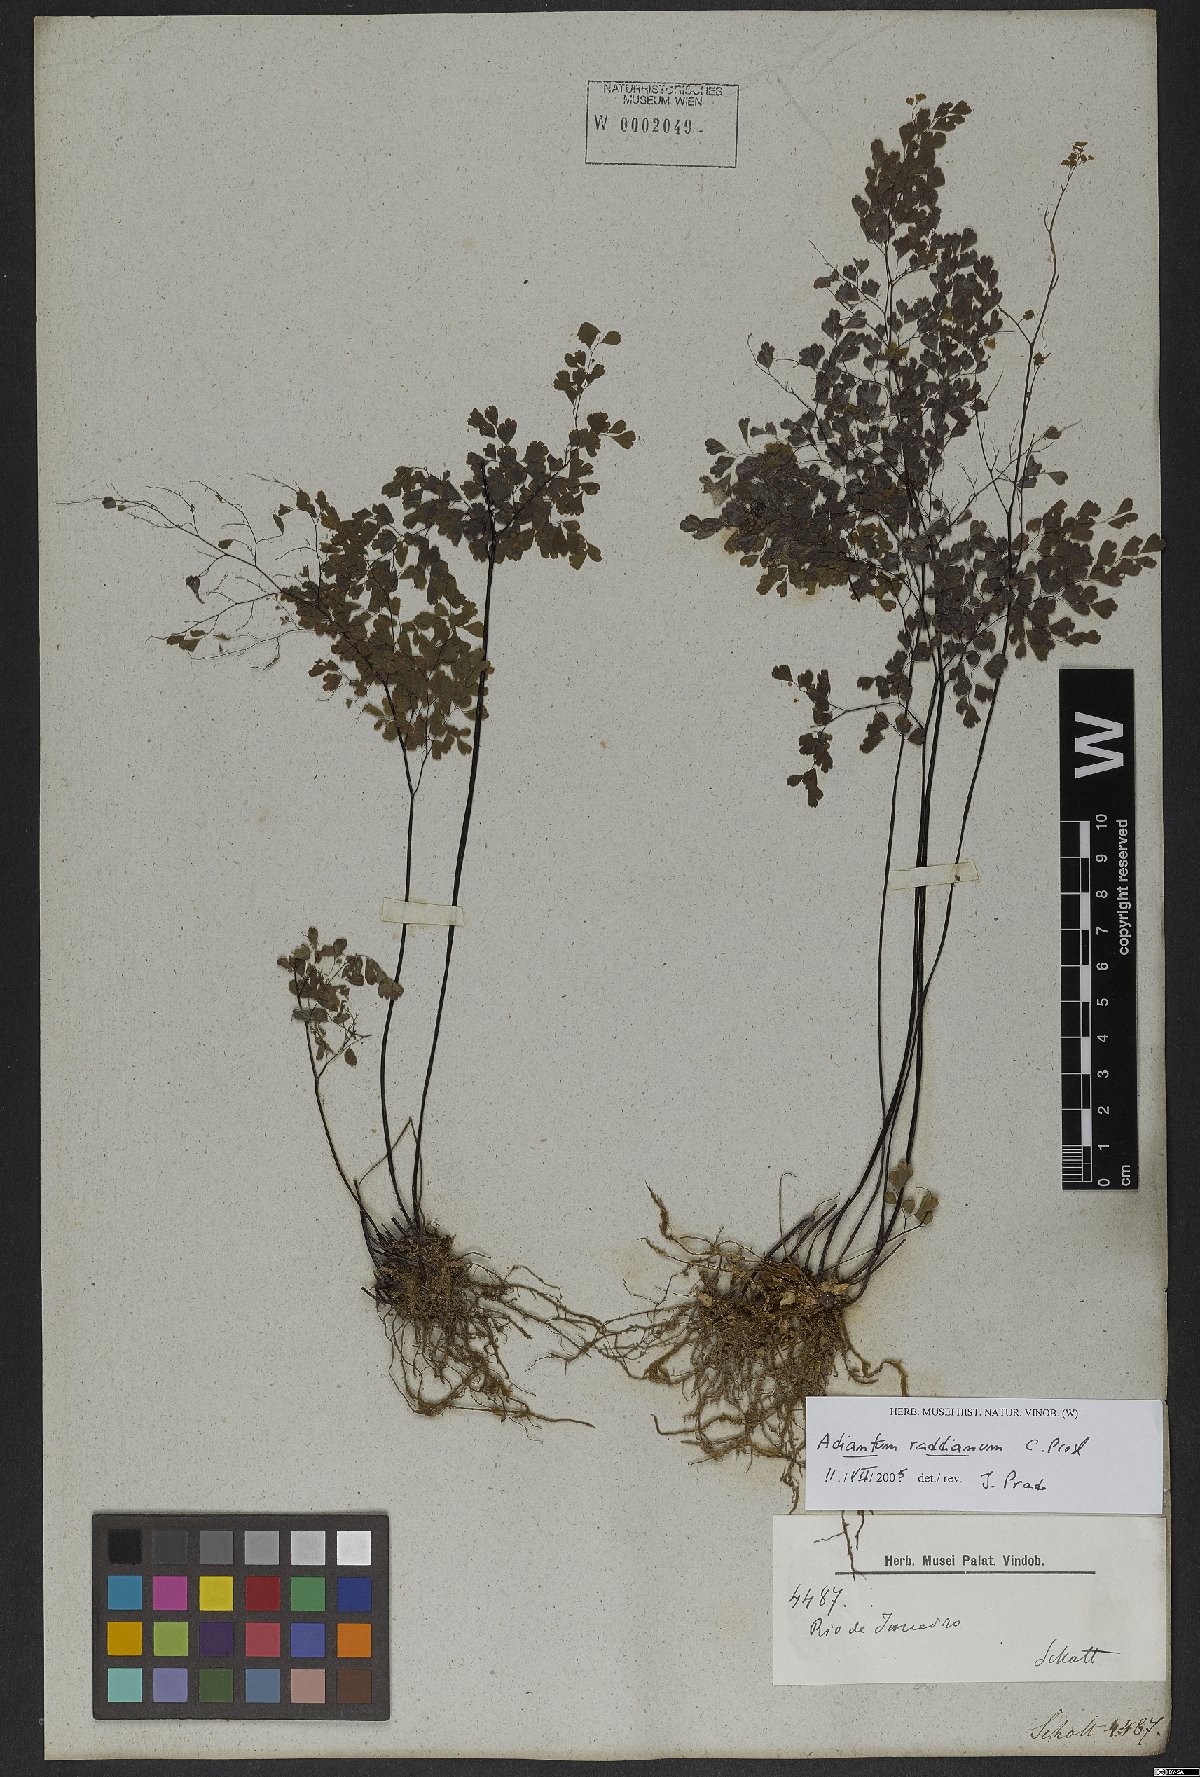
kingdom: Plantae
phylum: Tracheophyta
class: Polypodiopsida
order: Polypodiales
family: Pteridaceae
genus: Adiantum
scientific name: Adiantum raddianum
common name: Delta maidenhair fern
